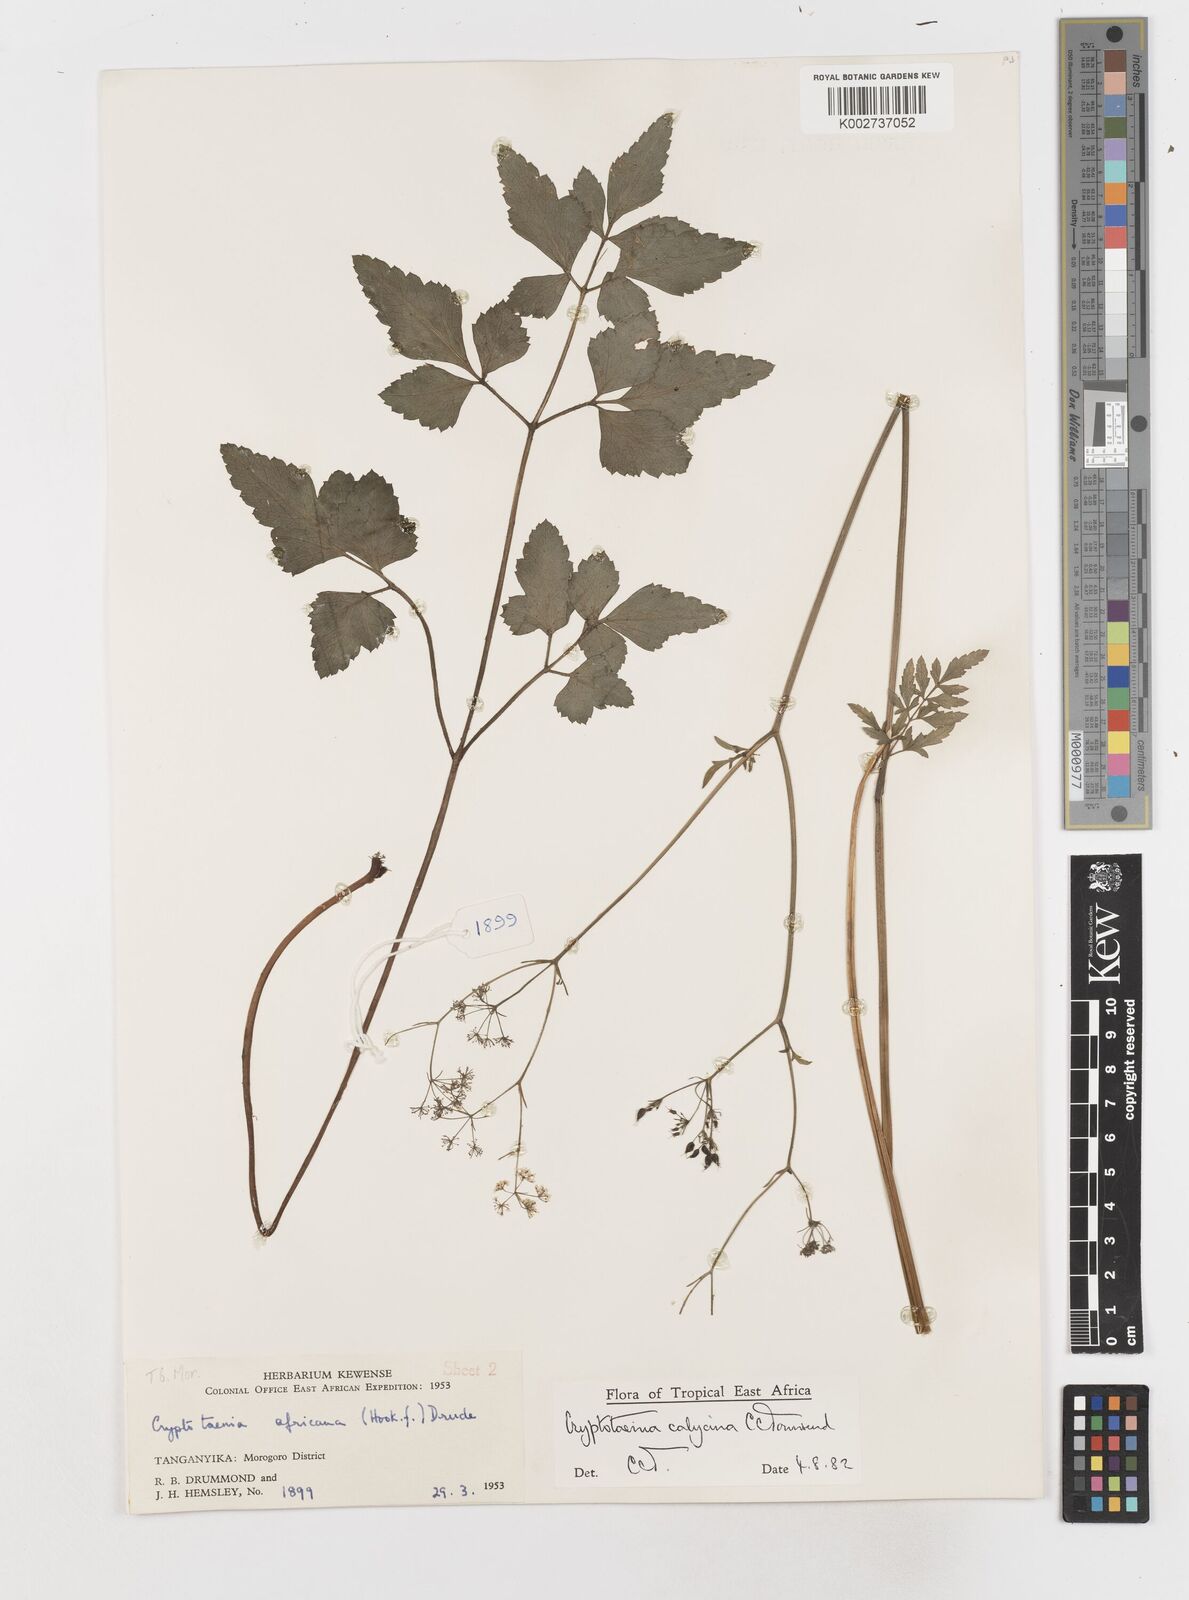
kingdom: Plantae
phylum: Tracheophyta
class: Magnoliopsida
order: Apiales
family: Apiaceae
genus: Cryptotaenia
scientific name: Cryptotaenia calycina
